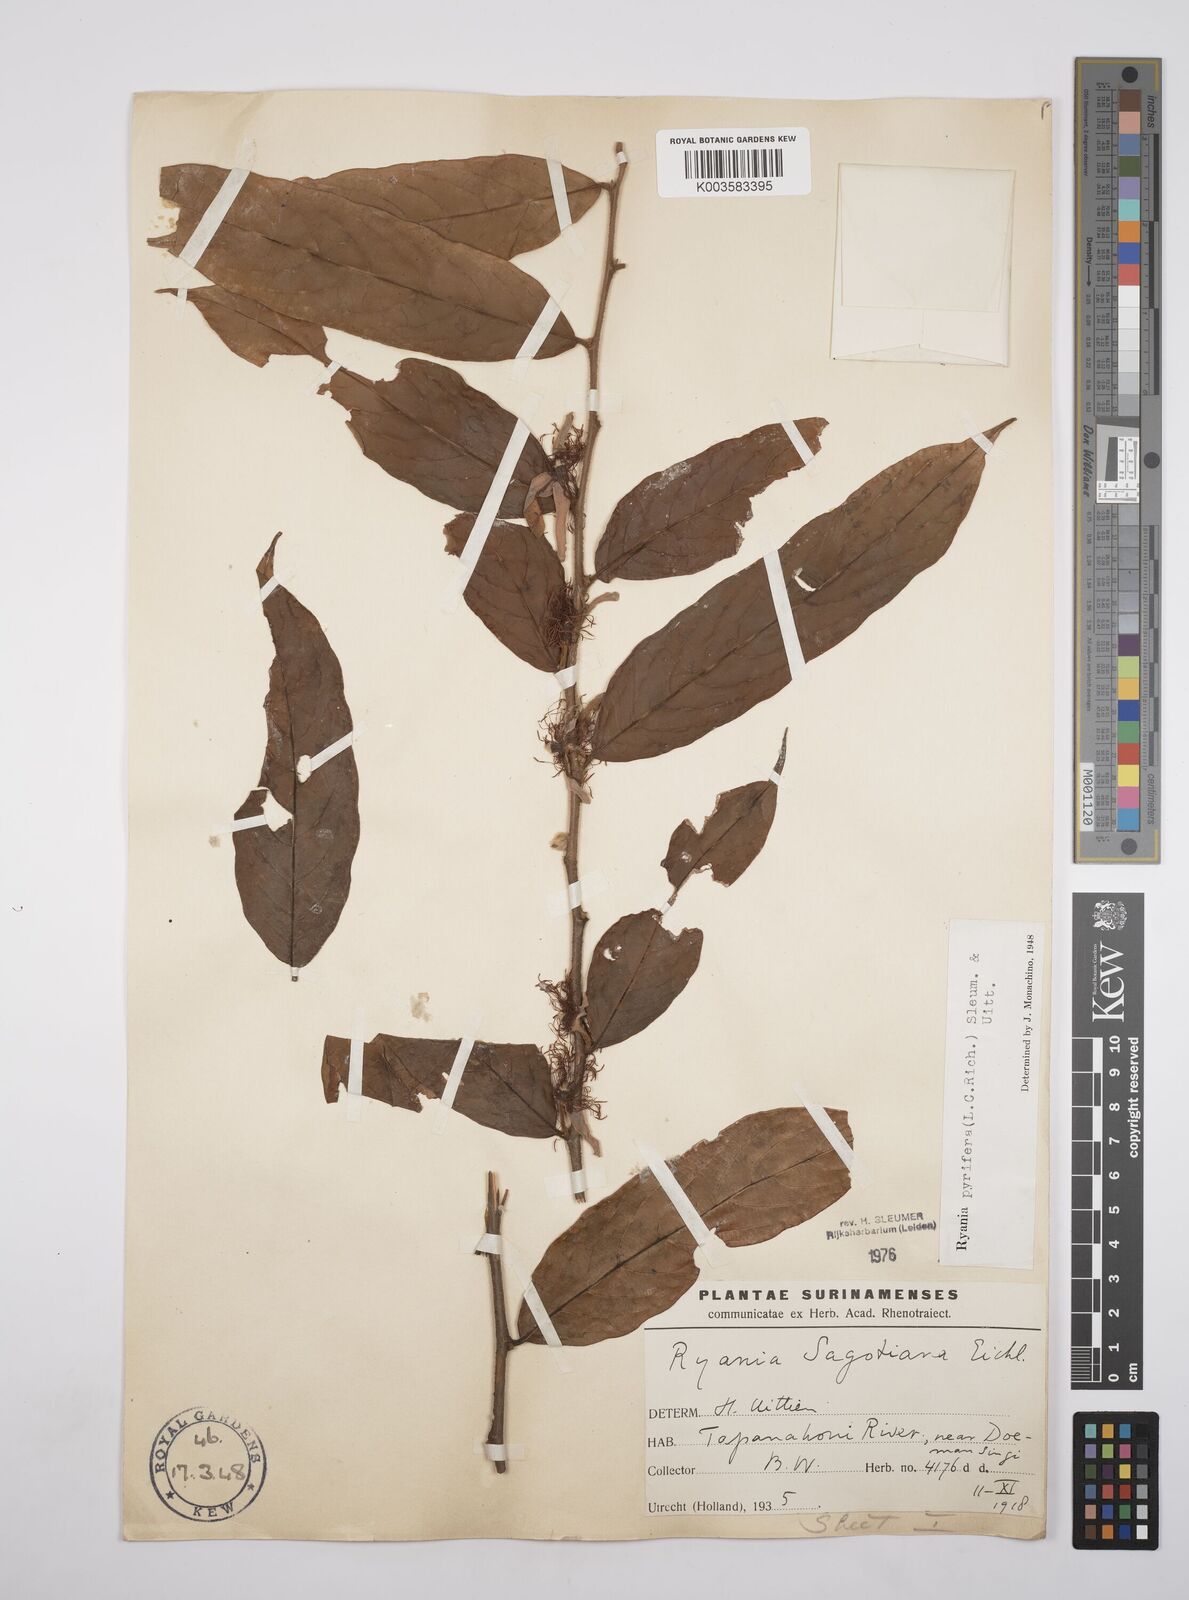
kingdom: Plantae
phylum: Tracheophyta
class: Magnoliopsida
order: Malpighiales
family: Salicaceae
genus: Ryania
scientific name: Ryania pyrifera
